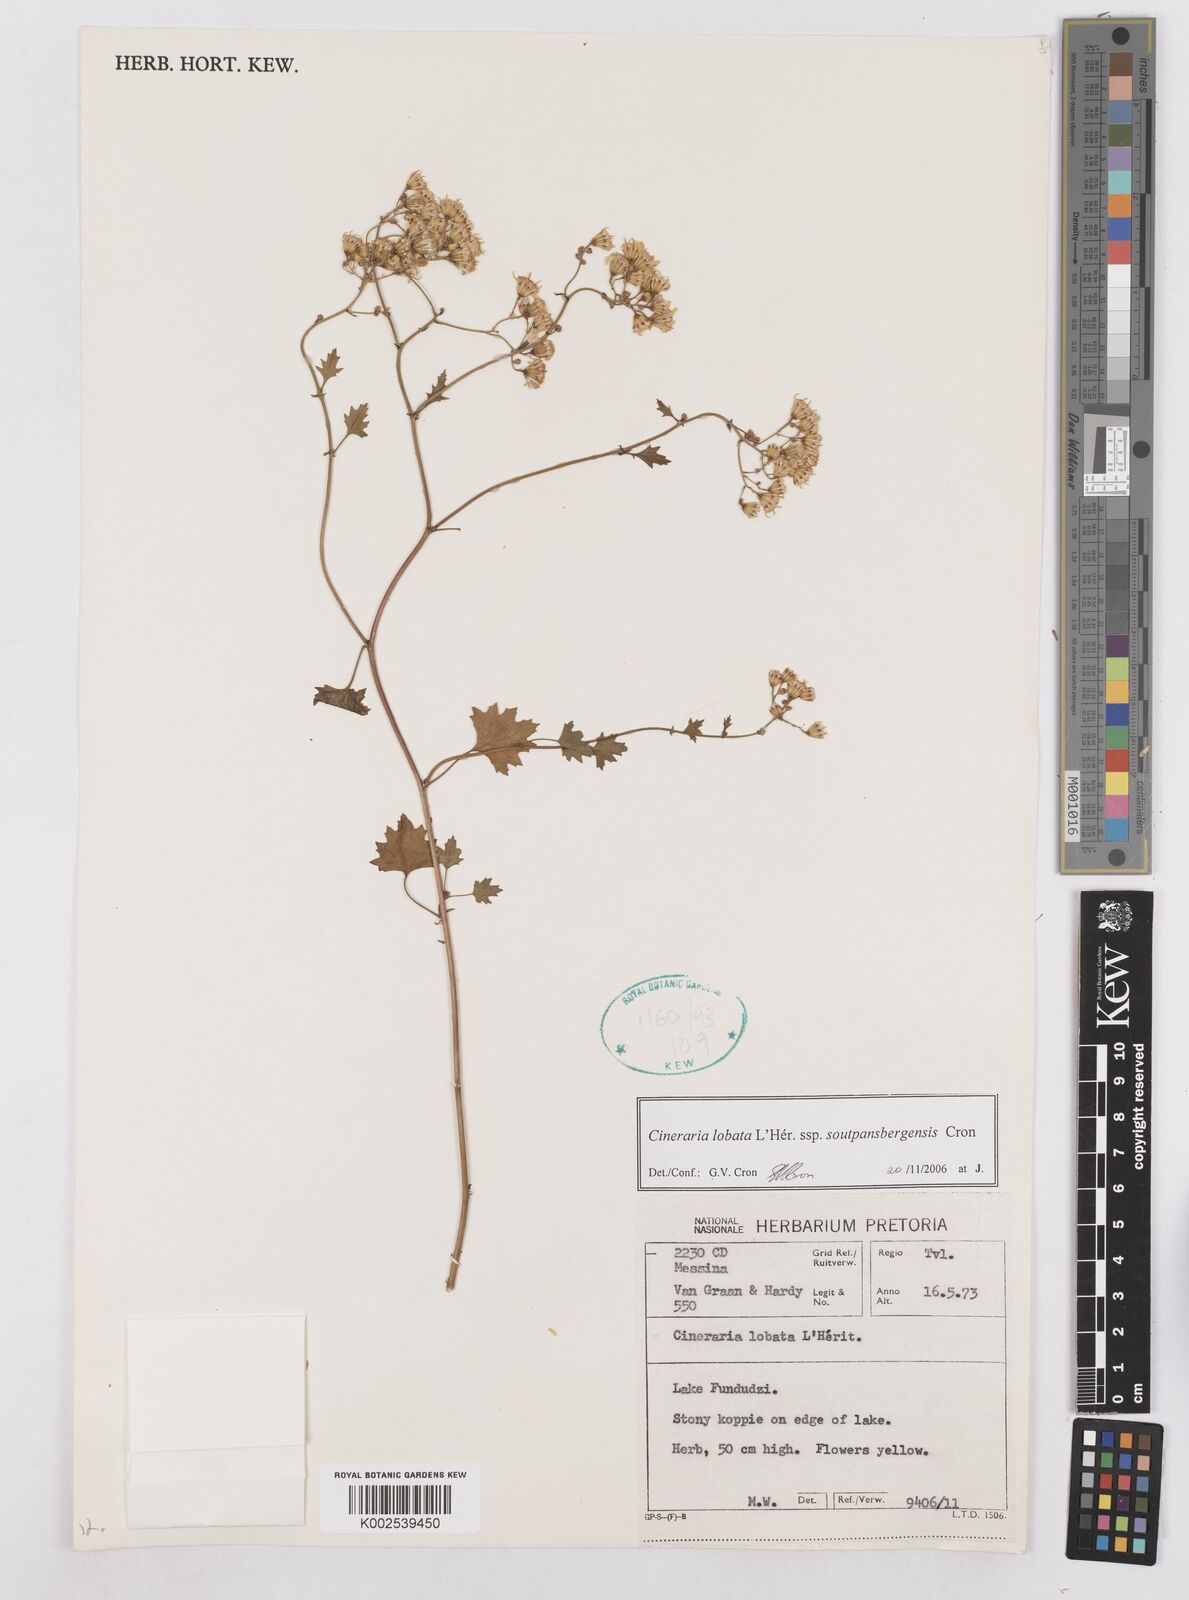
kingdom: Plantae
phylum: Tracheophyta
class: Magnoliopsida
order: Asterales
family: Asteraceae
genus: Cineraria
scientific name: Cineraria lobata
